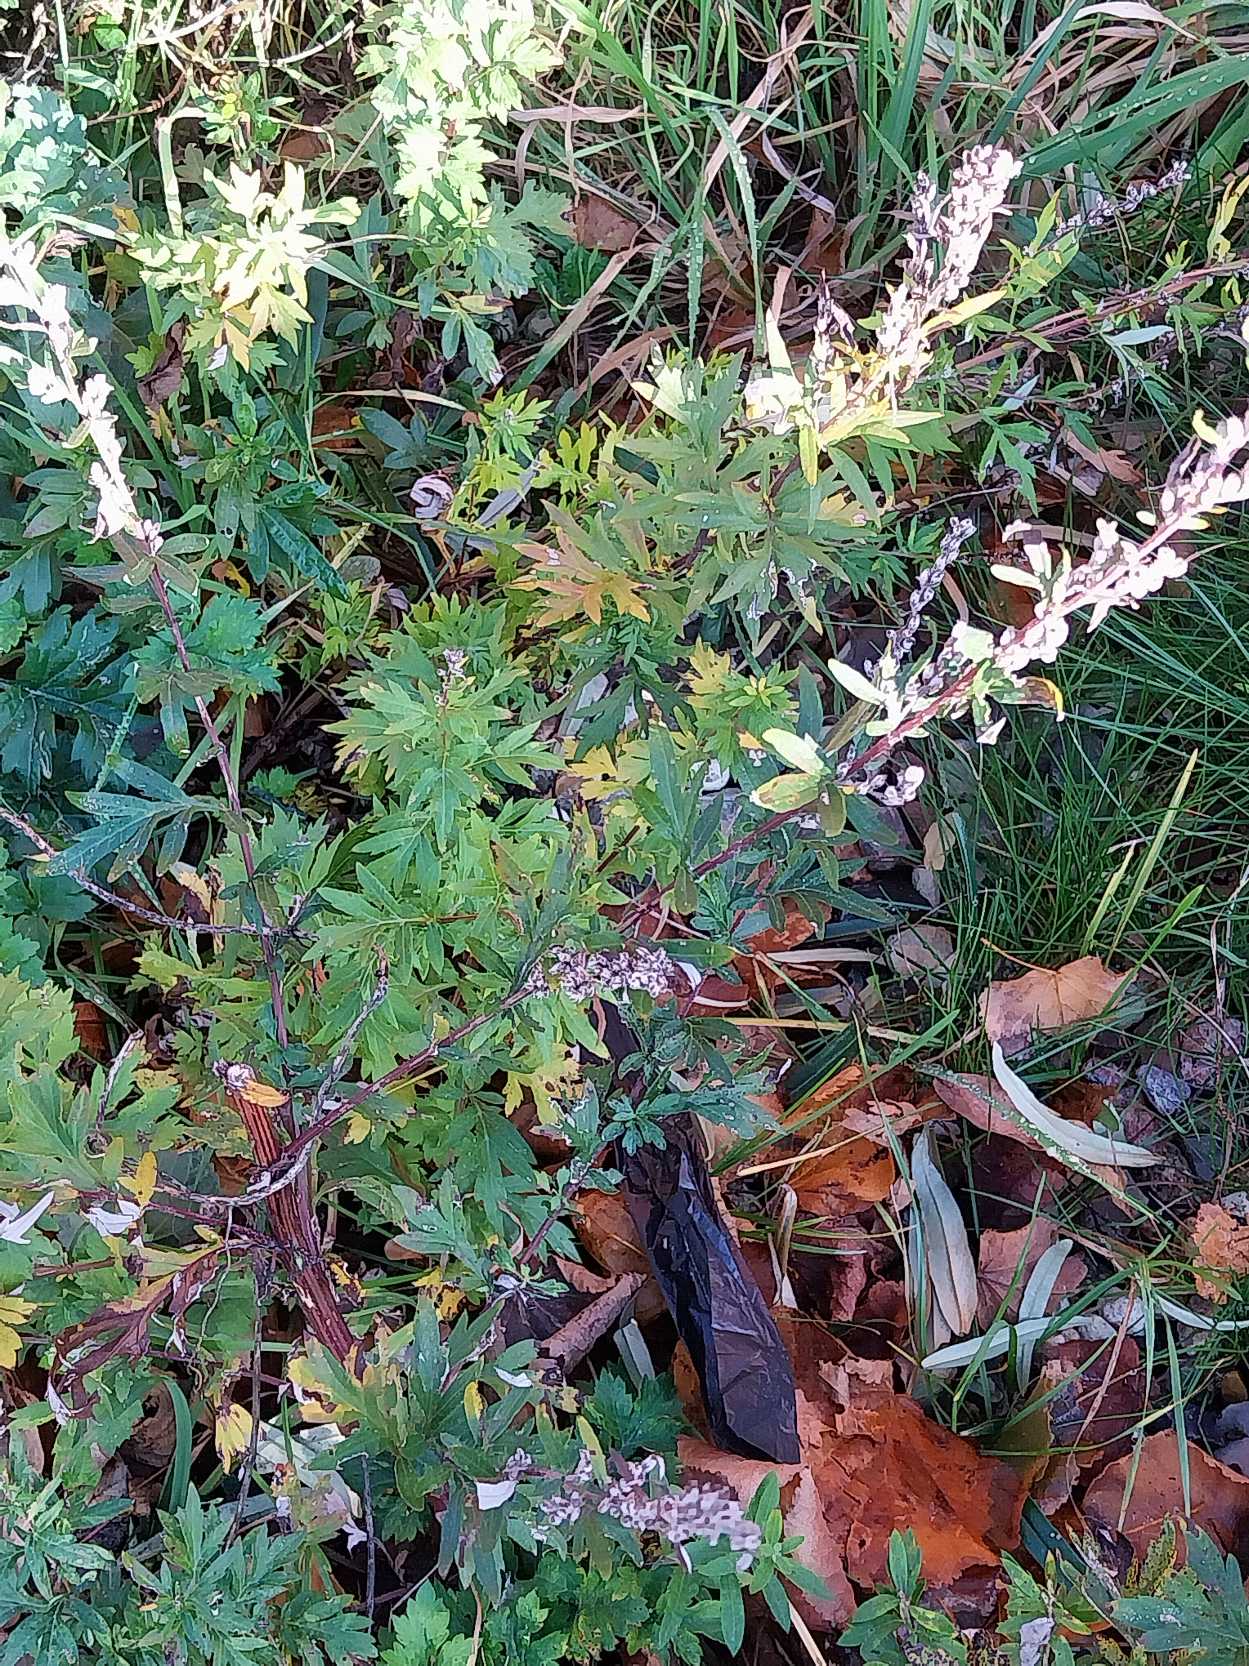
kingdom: Plantae
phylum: Tracheophyta
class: Magnoliopsida
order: Asterales
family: Asteraceae
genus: Artemisia
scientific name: Artemisia vulgaris
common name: Grå-bynke
